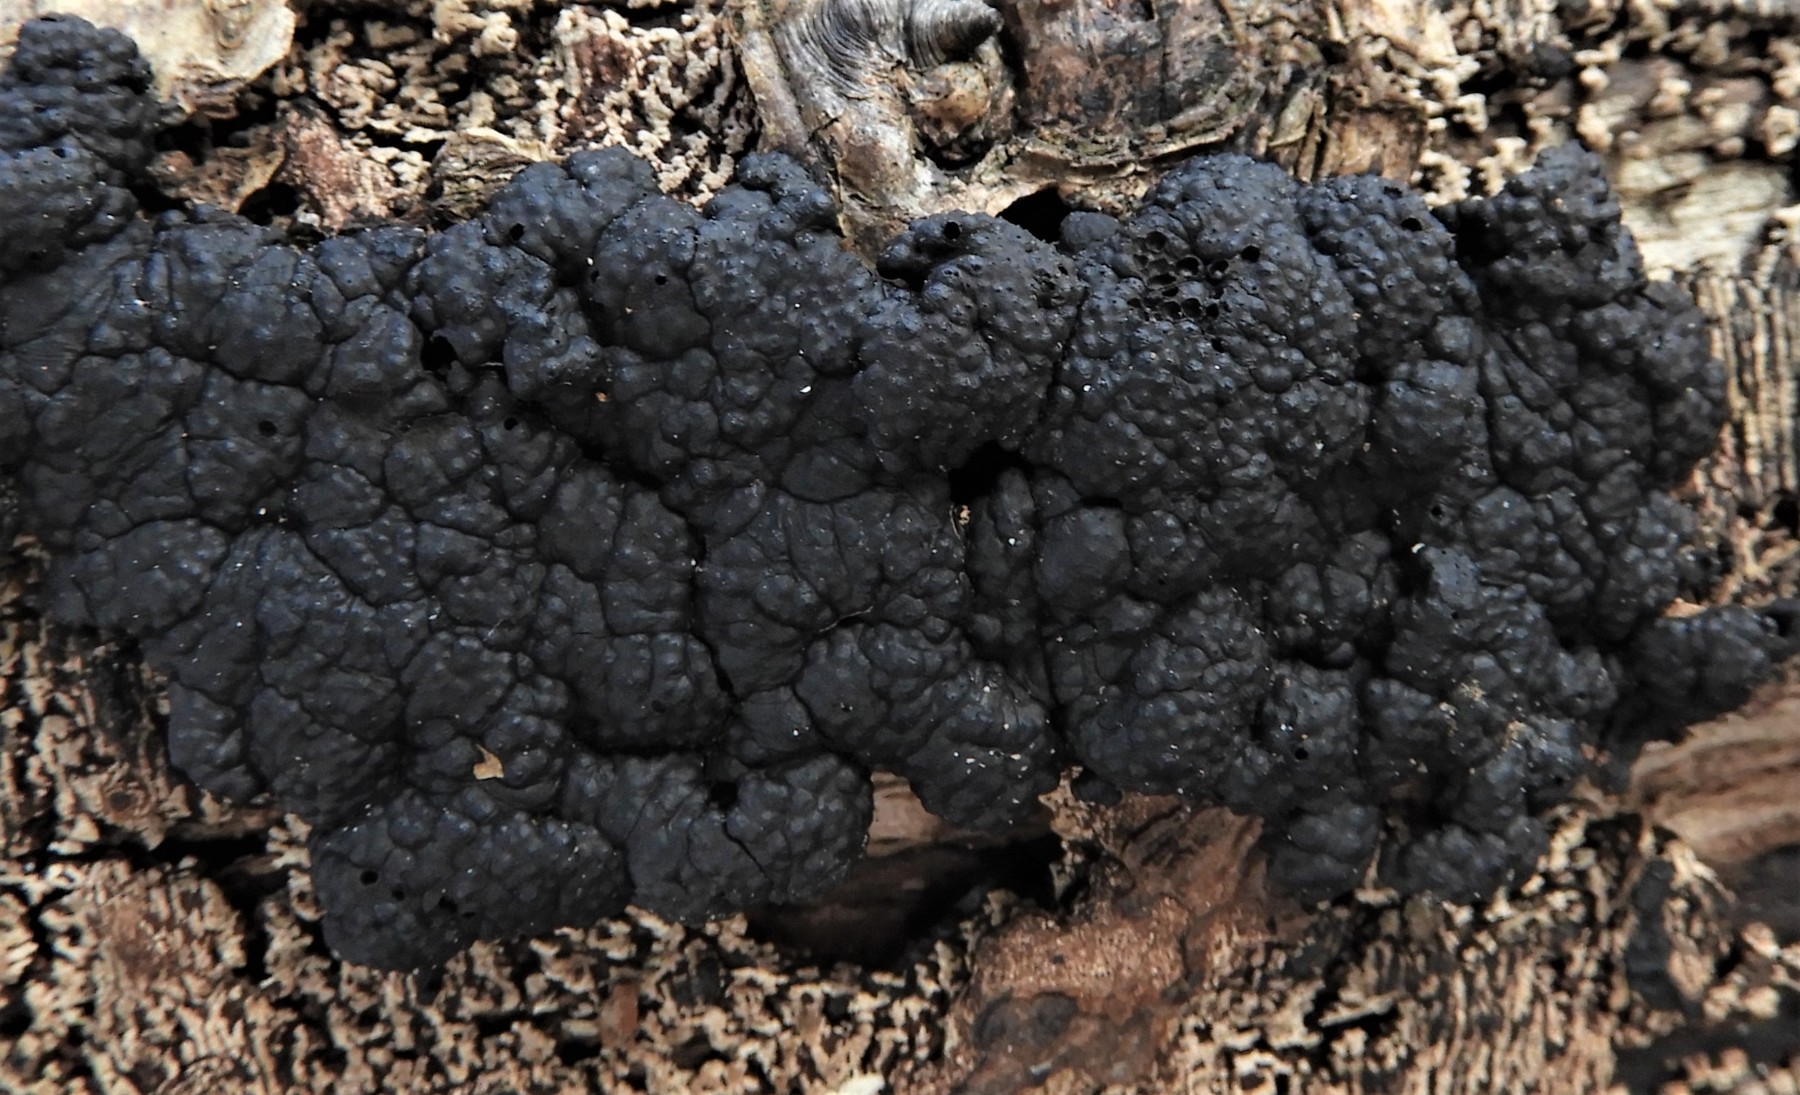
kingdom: Fungi
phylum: Ascomycota
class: Sordariomycetes
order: Xylariales
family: Hypoxylaceae
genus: Jackrogersella
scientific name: Jackrogersella cohaerens
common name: sammenflydende kulbær
